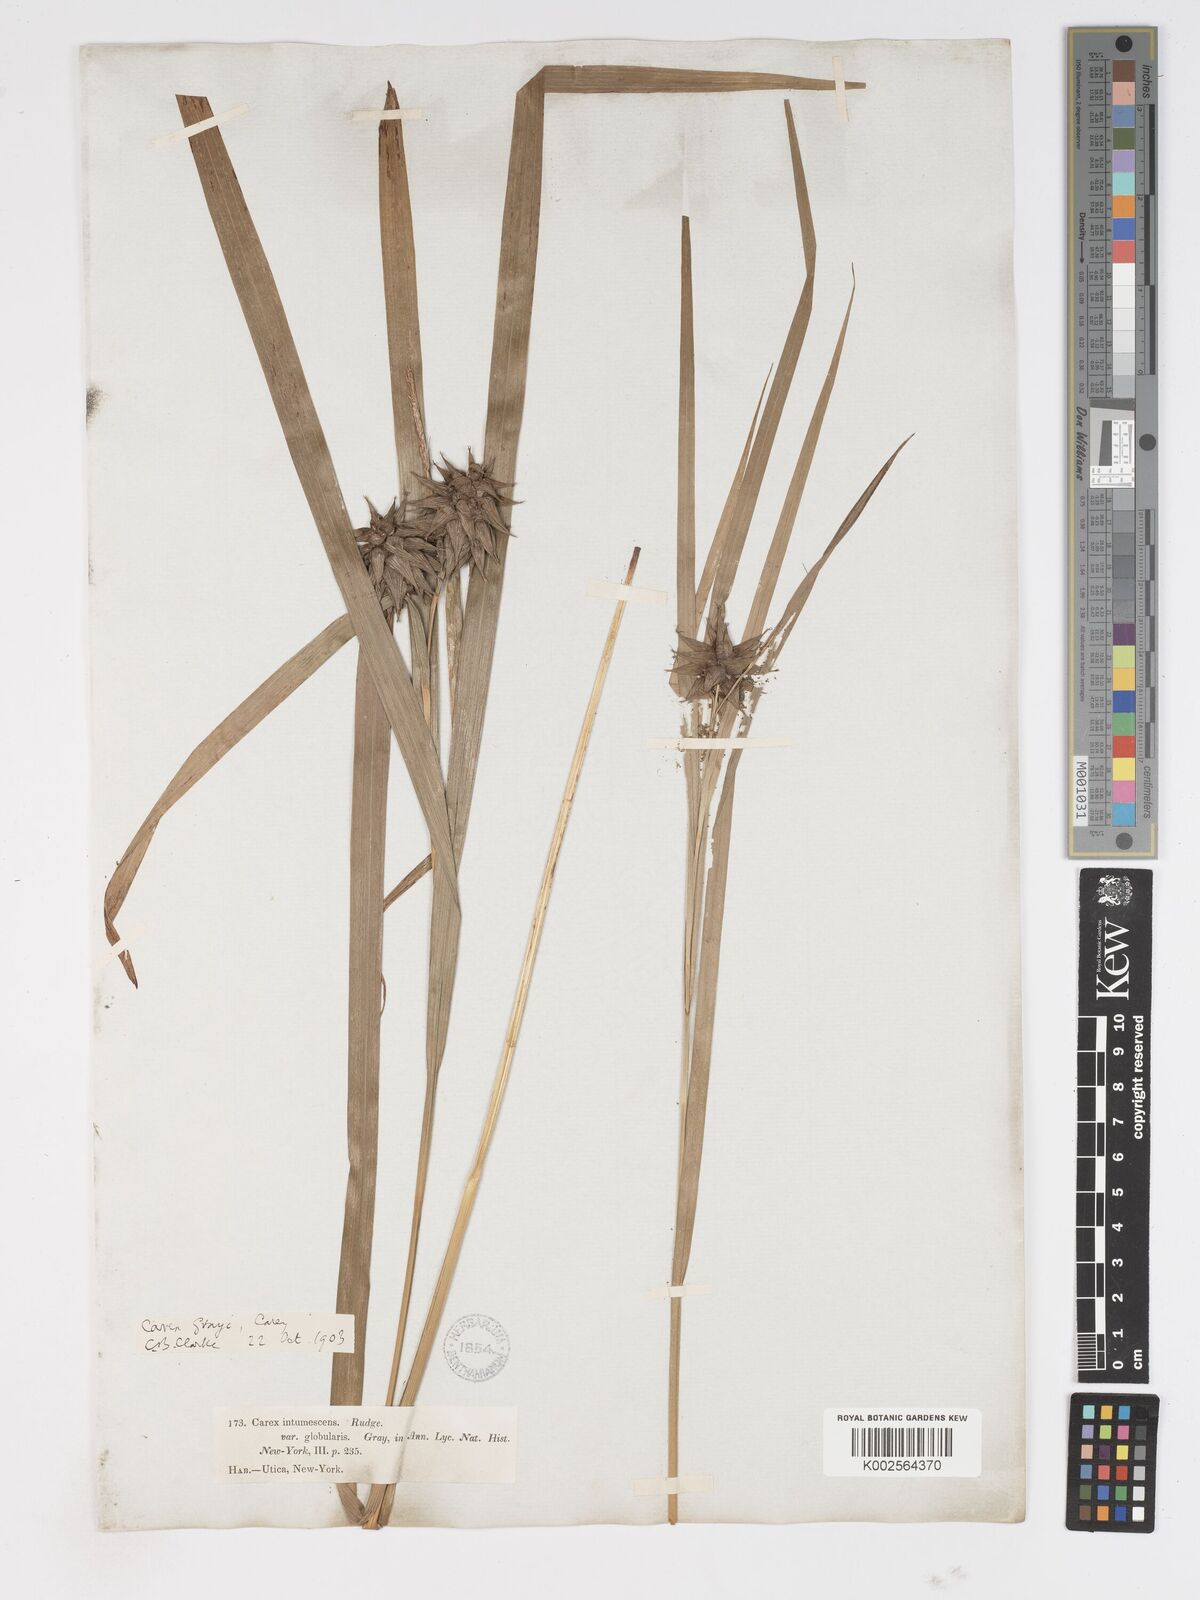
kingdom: Plantae
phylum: Tracheophyta
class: Liliopsida
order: Poales
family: Cyperaceae
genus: Carex
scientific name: Carex grayi
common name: Asa gray's sedge
